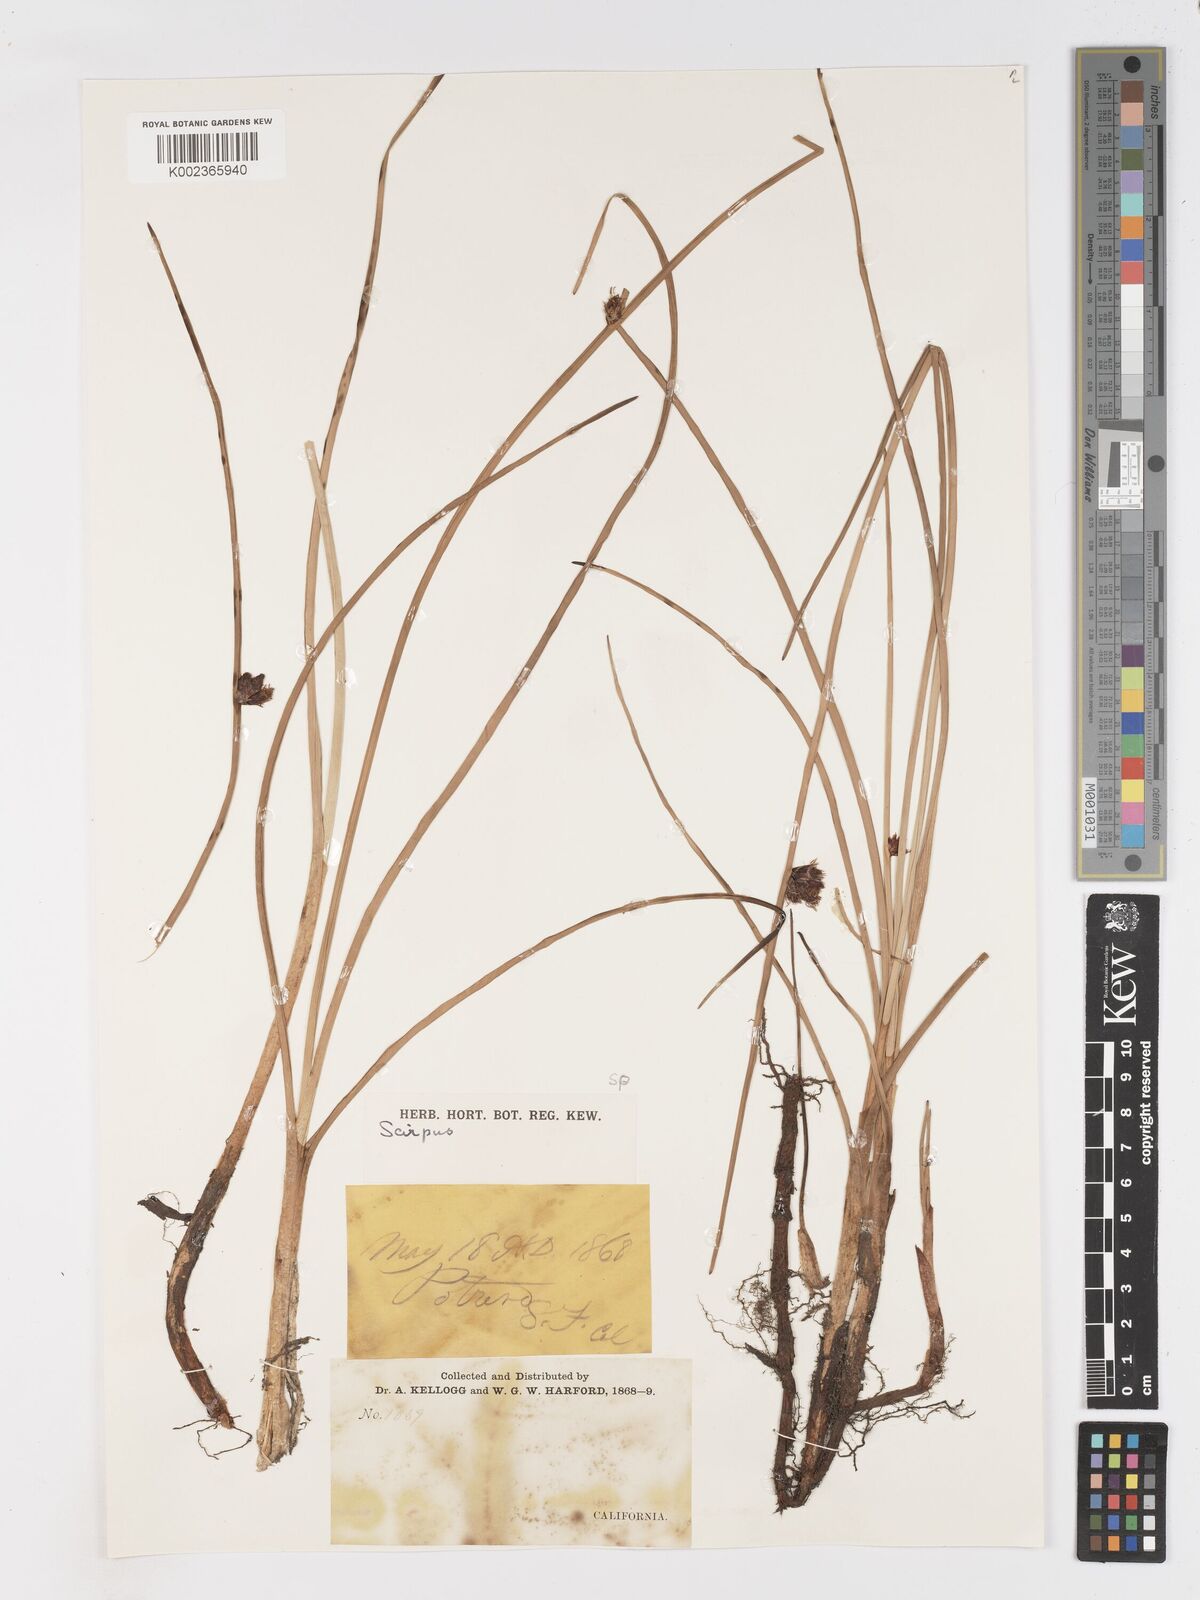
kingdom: Plantae
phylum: Tracheophyta
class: Liliopsida
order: Poales
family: Cyperaceae
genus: Schoenoplectus
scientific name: Schoenoplectus
